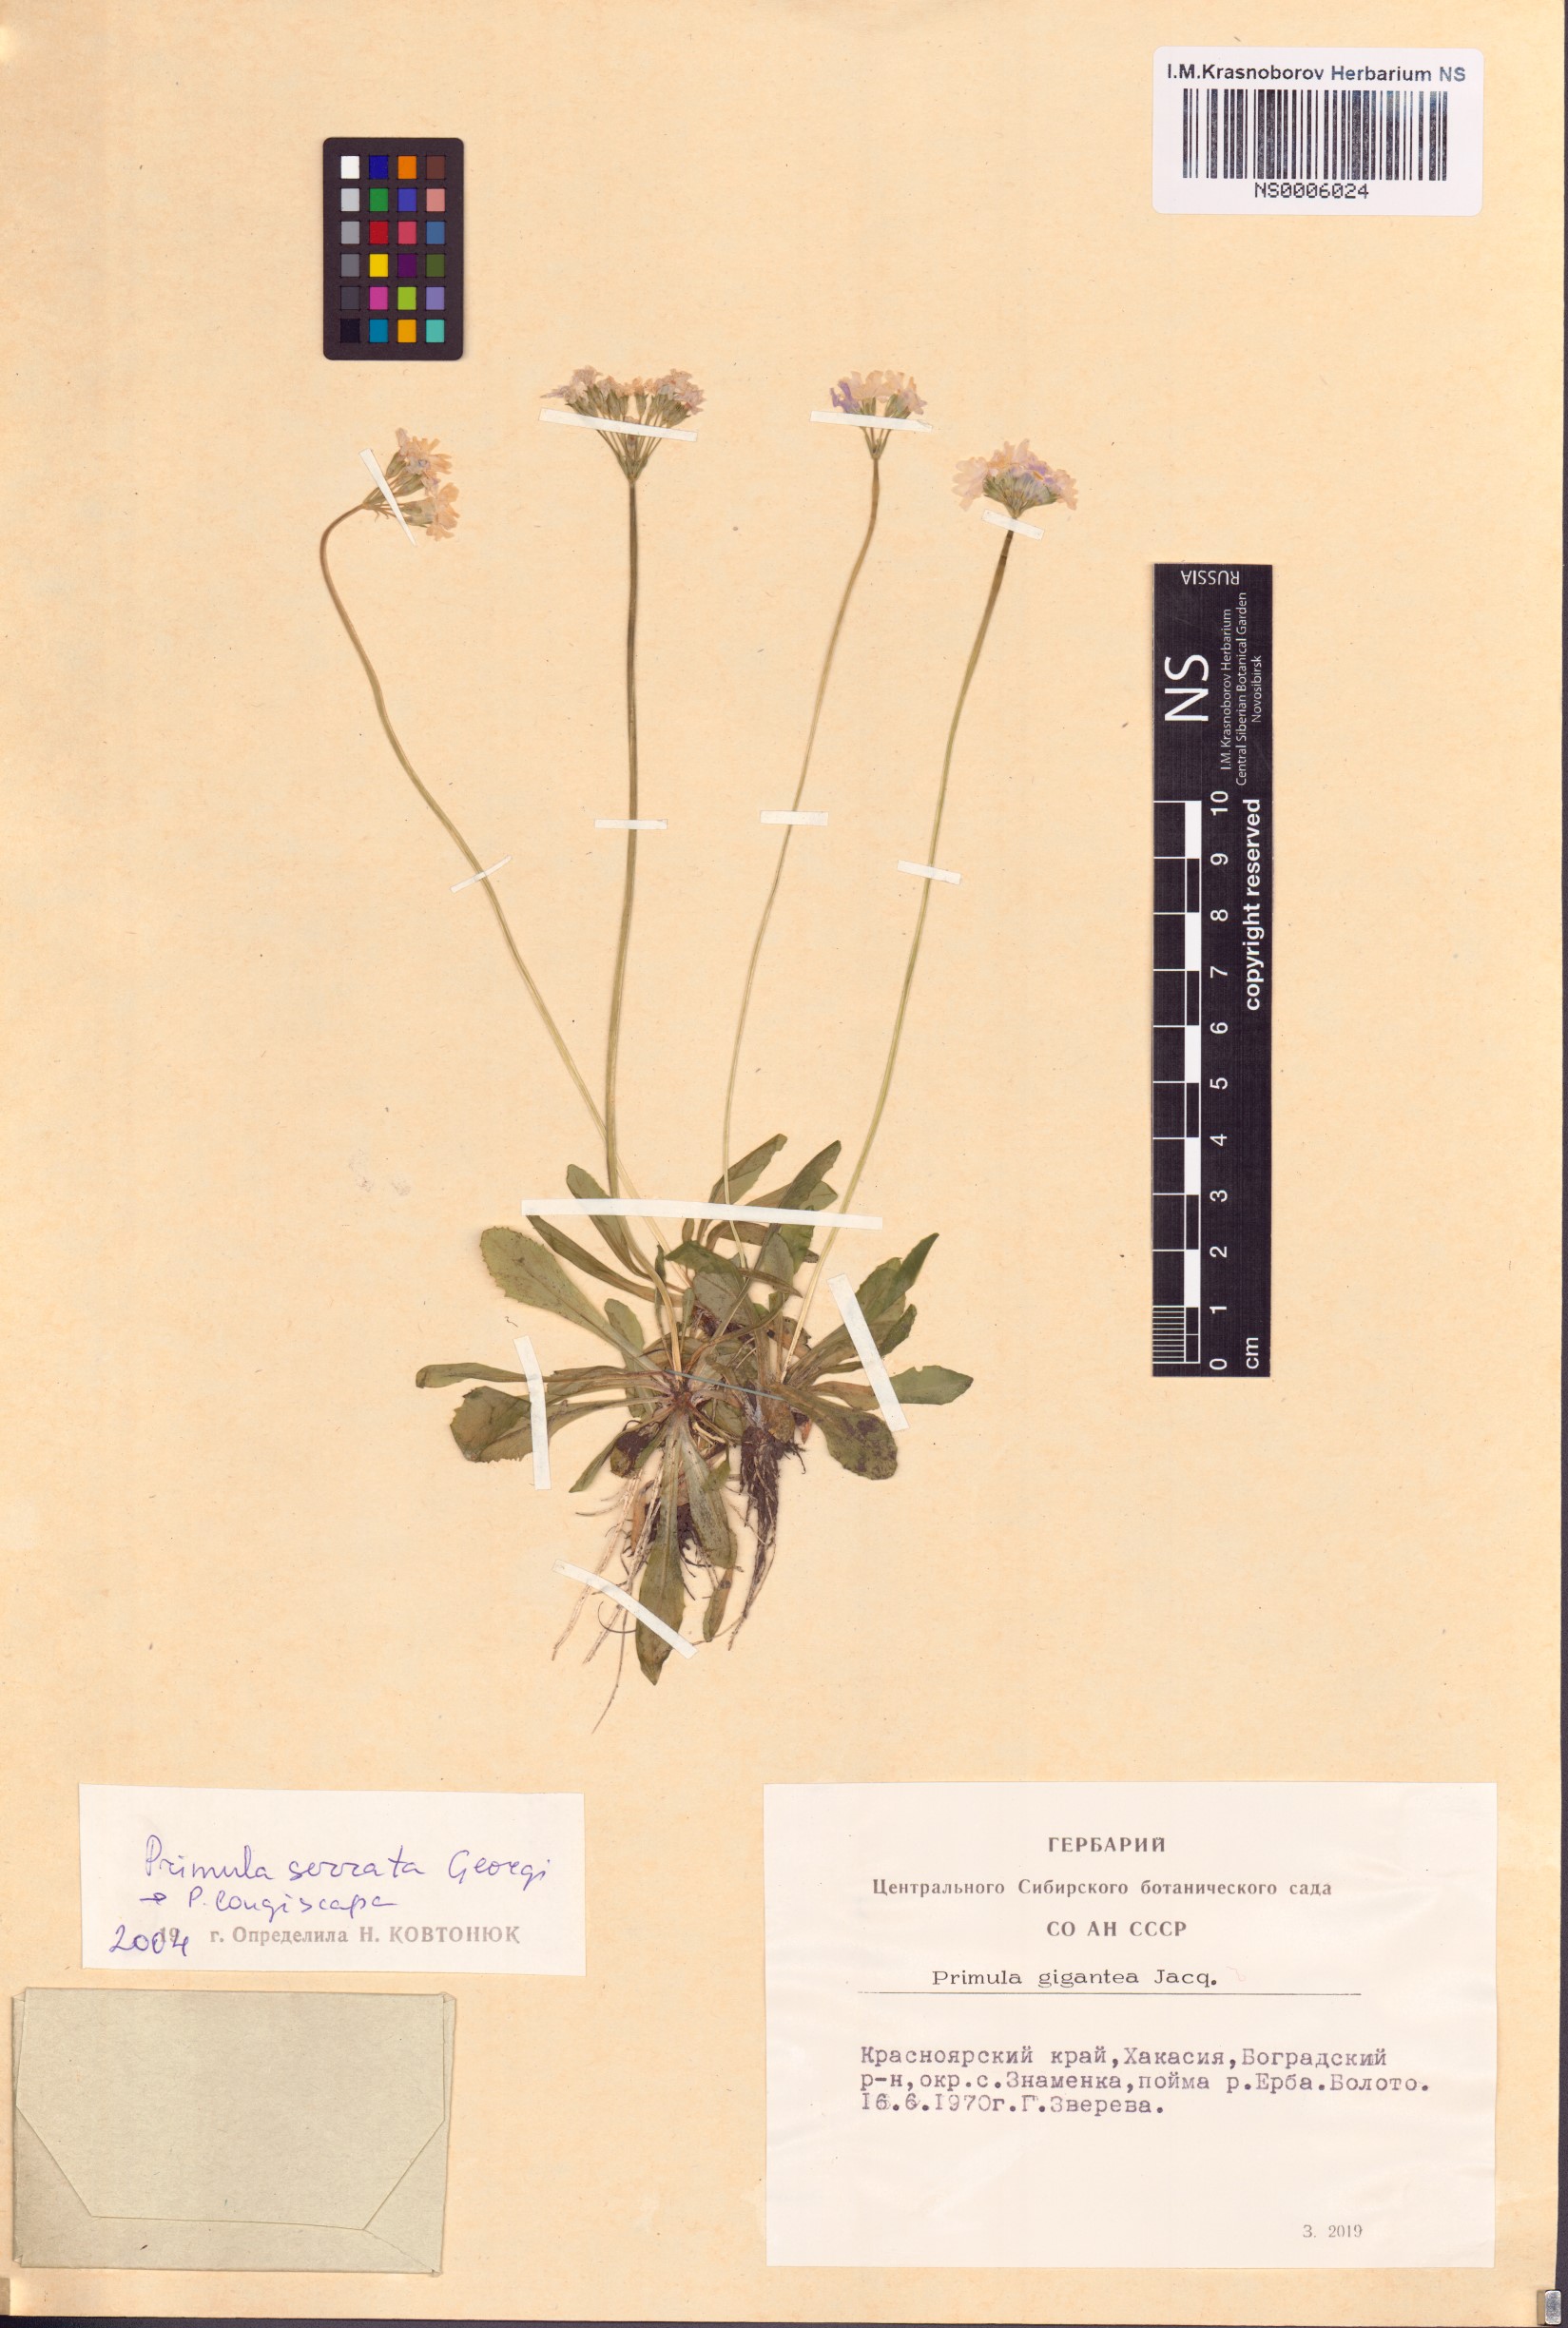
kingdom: Plantae
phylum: Tracheophyta
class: Magnoliopsida
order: Ericales
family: Primulaceae
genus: Primula
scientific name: Primula serrata
